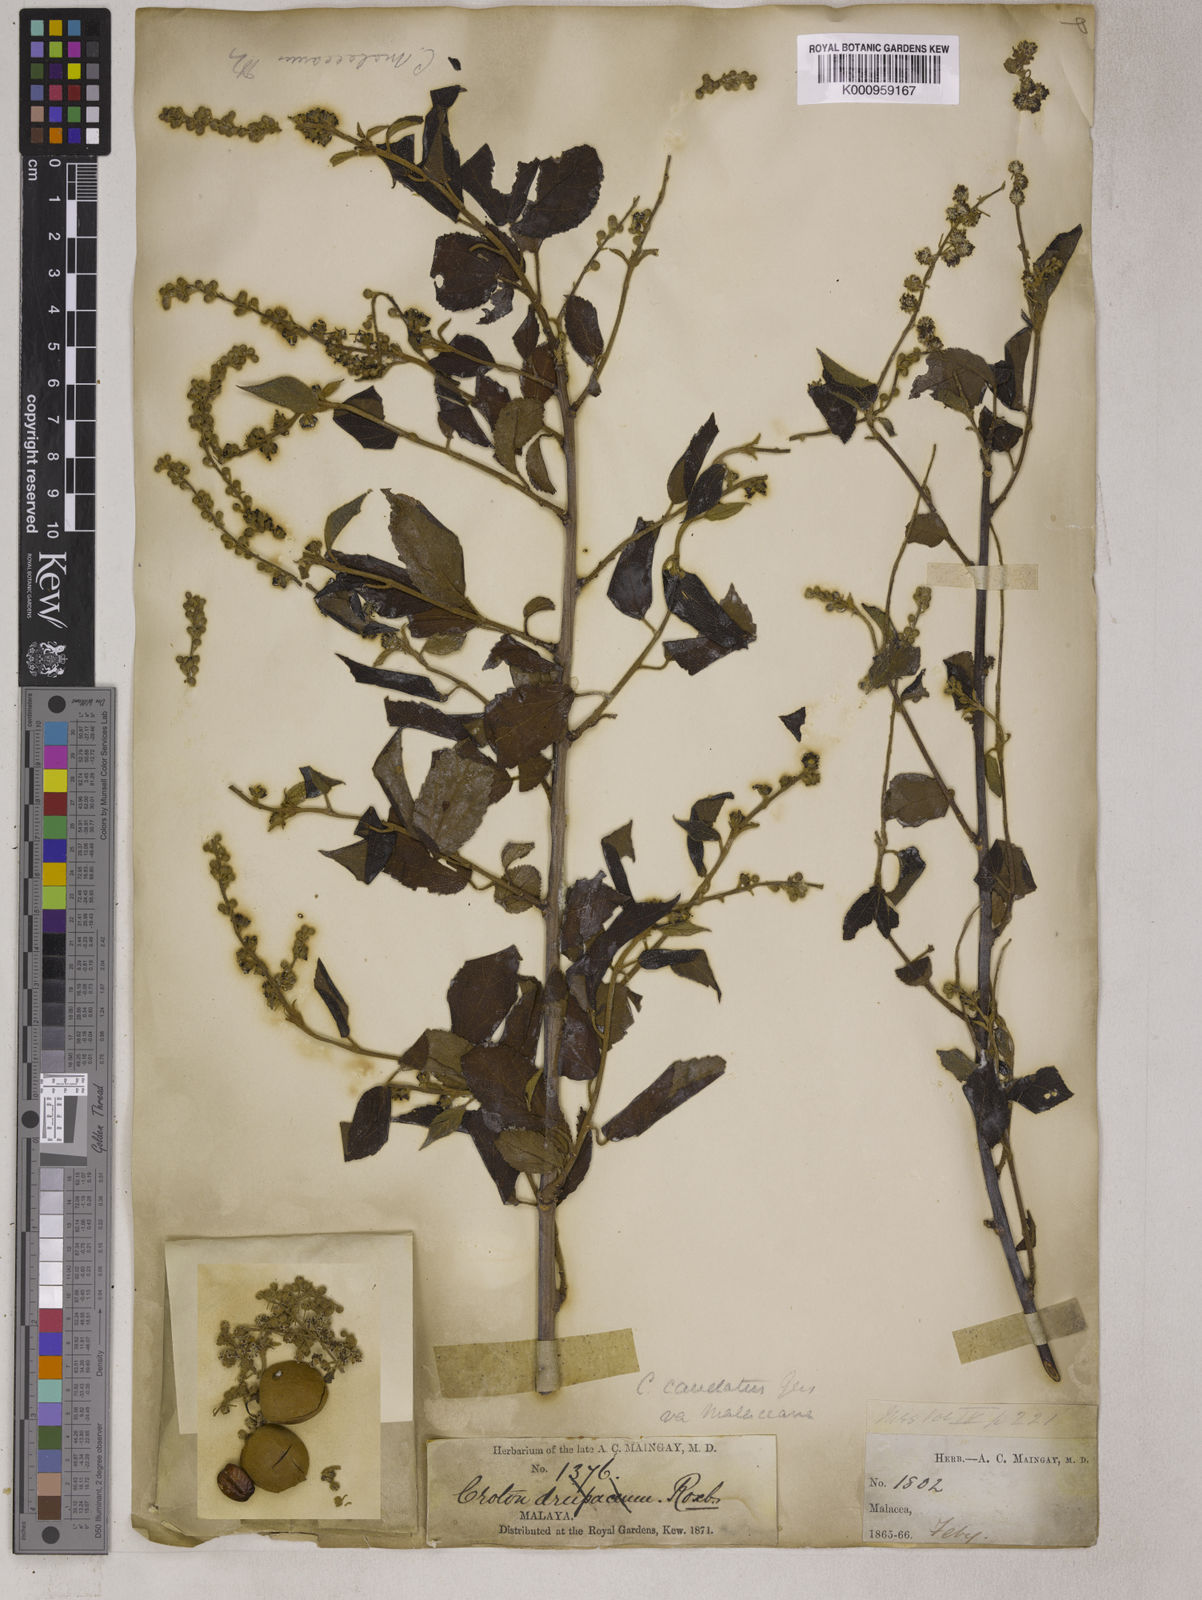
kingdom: Plantae
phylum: Tracheophyta
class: Magnoliopsida
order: Malpighiales
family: Euphorbiaceae
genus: Croton
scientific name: Croton caudatus
